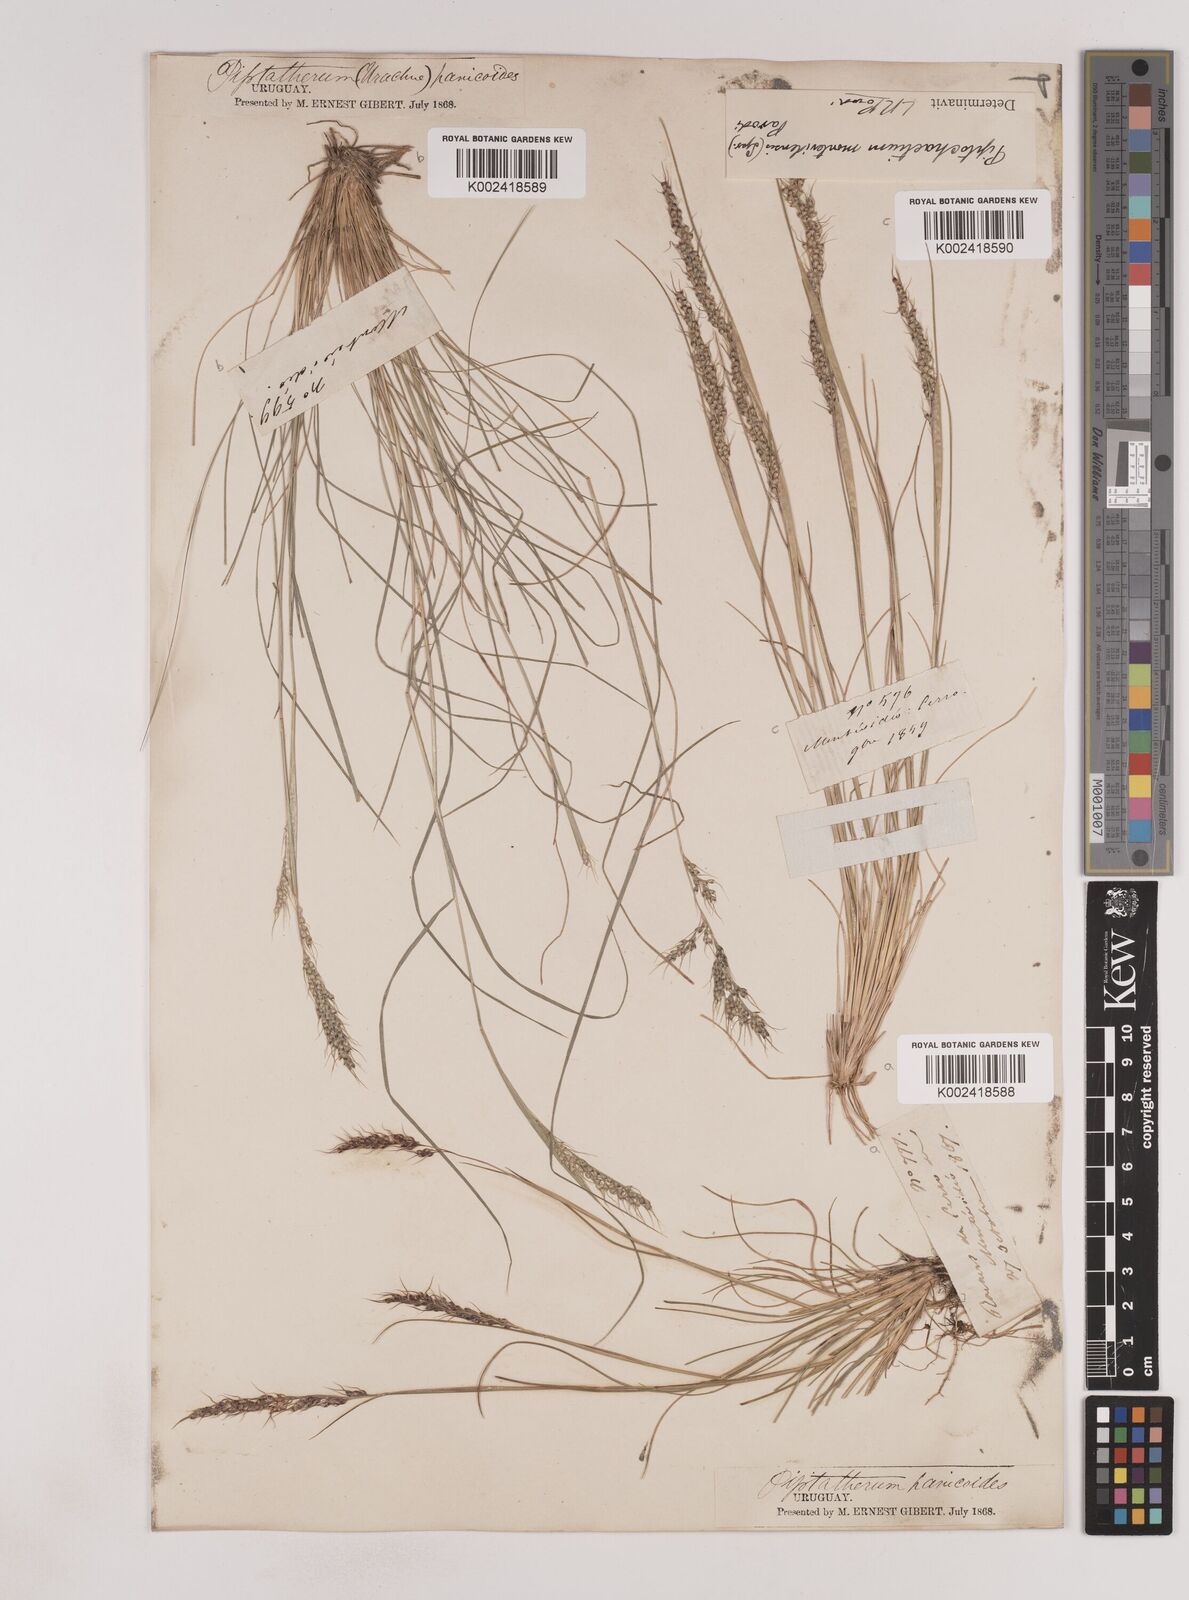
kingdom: Plantae
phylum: Tracheophyta
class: Liliopsida
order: Poales
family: Poaceae
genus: Piptochaetium
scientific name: Piptochaetium montevidense
